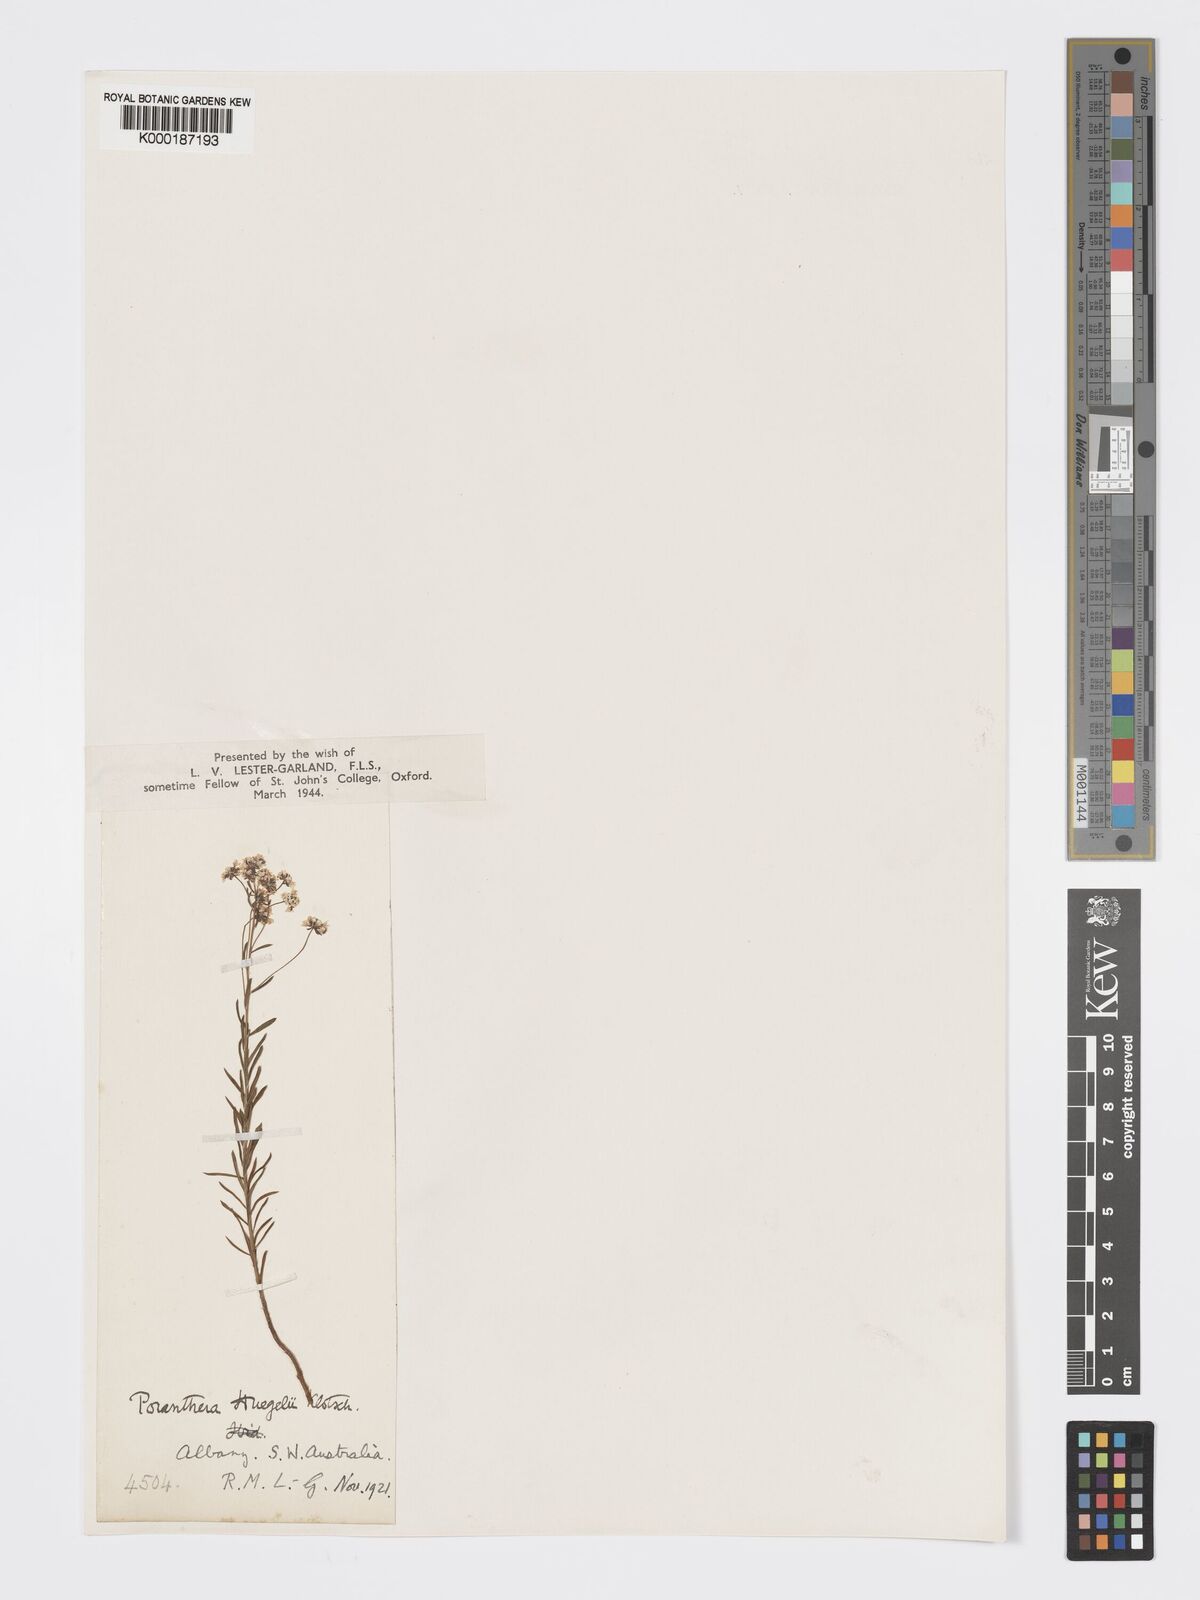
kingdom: Plantae
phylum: Tracheophyta
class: Magnoliopsida
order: Malpighiales
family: Phyllanthaceae
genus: Poranthera
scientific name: Poranthera huegelii
